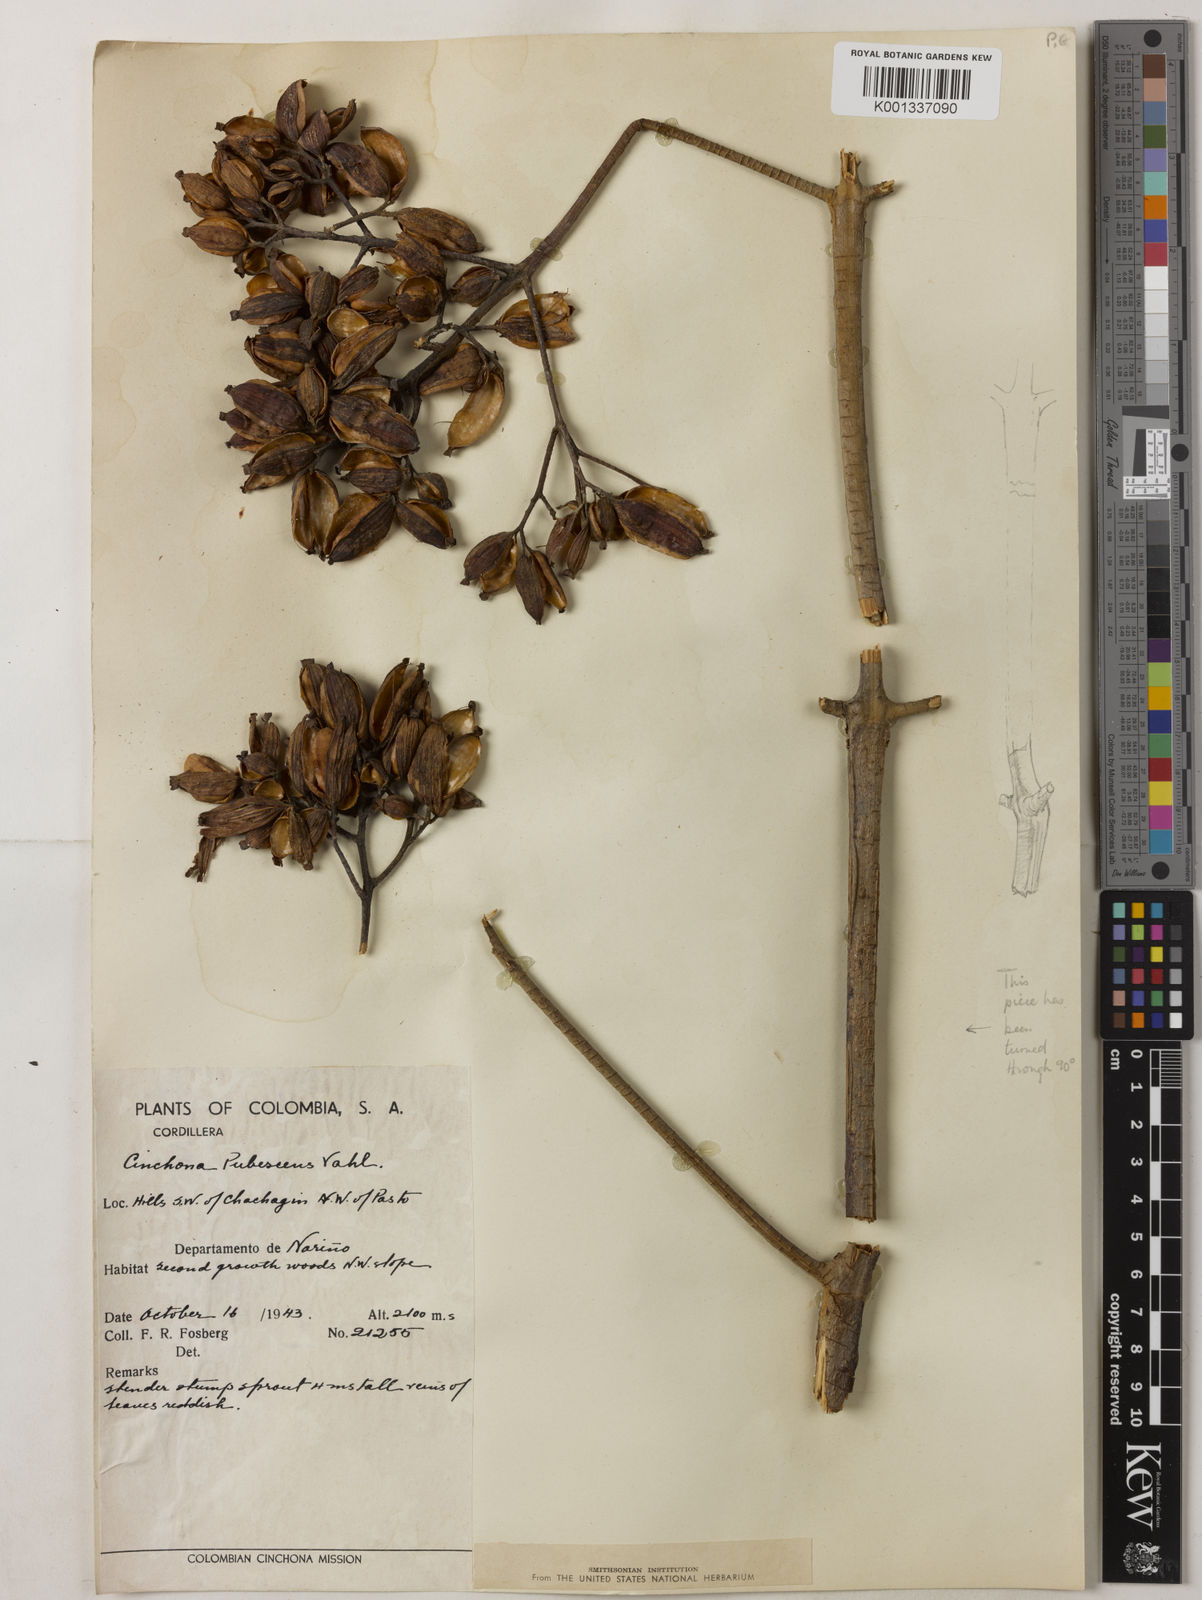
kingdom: Plantae
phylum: Tracheophyta
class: Magnoliopsida
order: Gentianales
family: Rubiaceae
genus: Cinchona
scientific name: Cinchona pubescens
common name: Quinine
